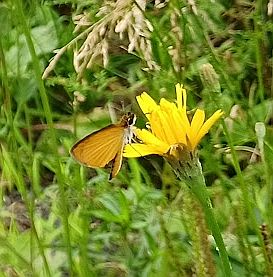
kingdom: Animalia
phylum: Arthropoda
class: Insecta
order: Lepidoptera
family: Hesperiidae
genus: Ancyloxypha
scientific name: Ancyloxypha numitor
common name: Least Skipper
